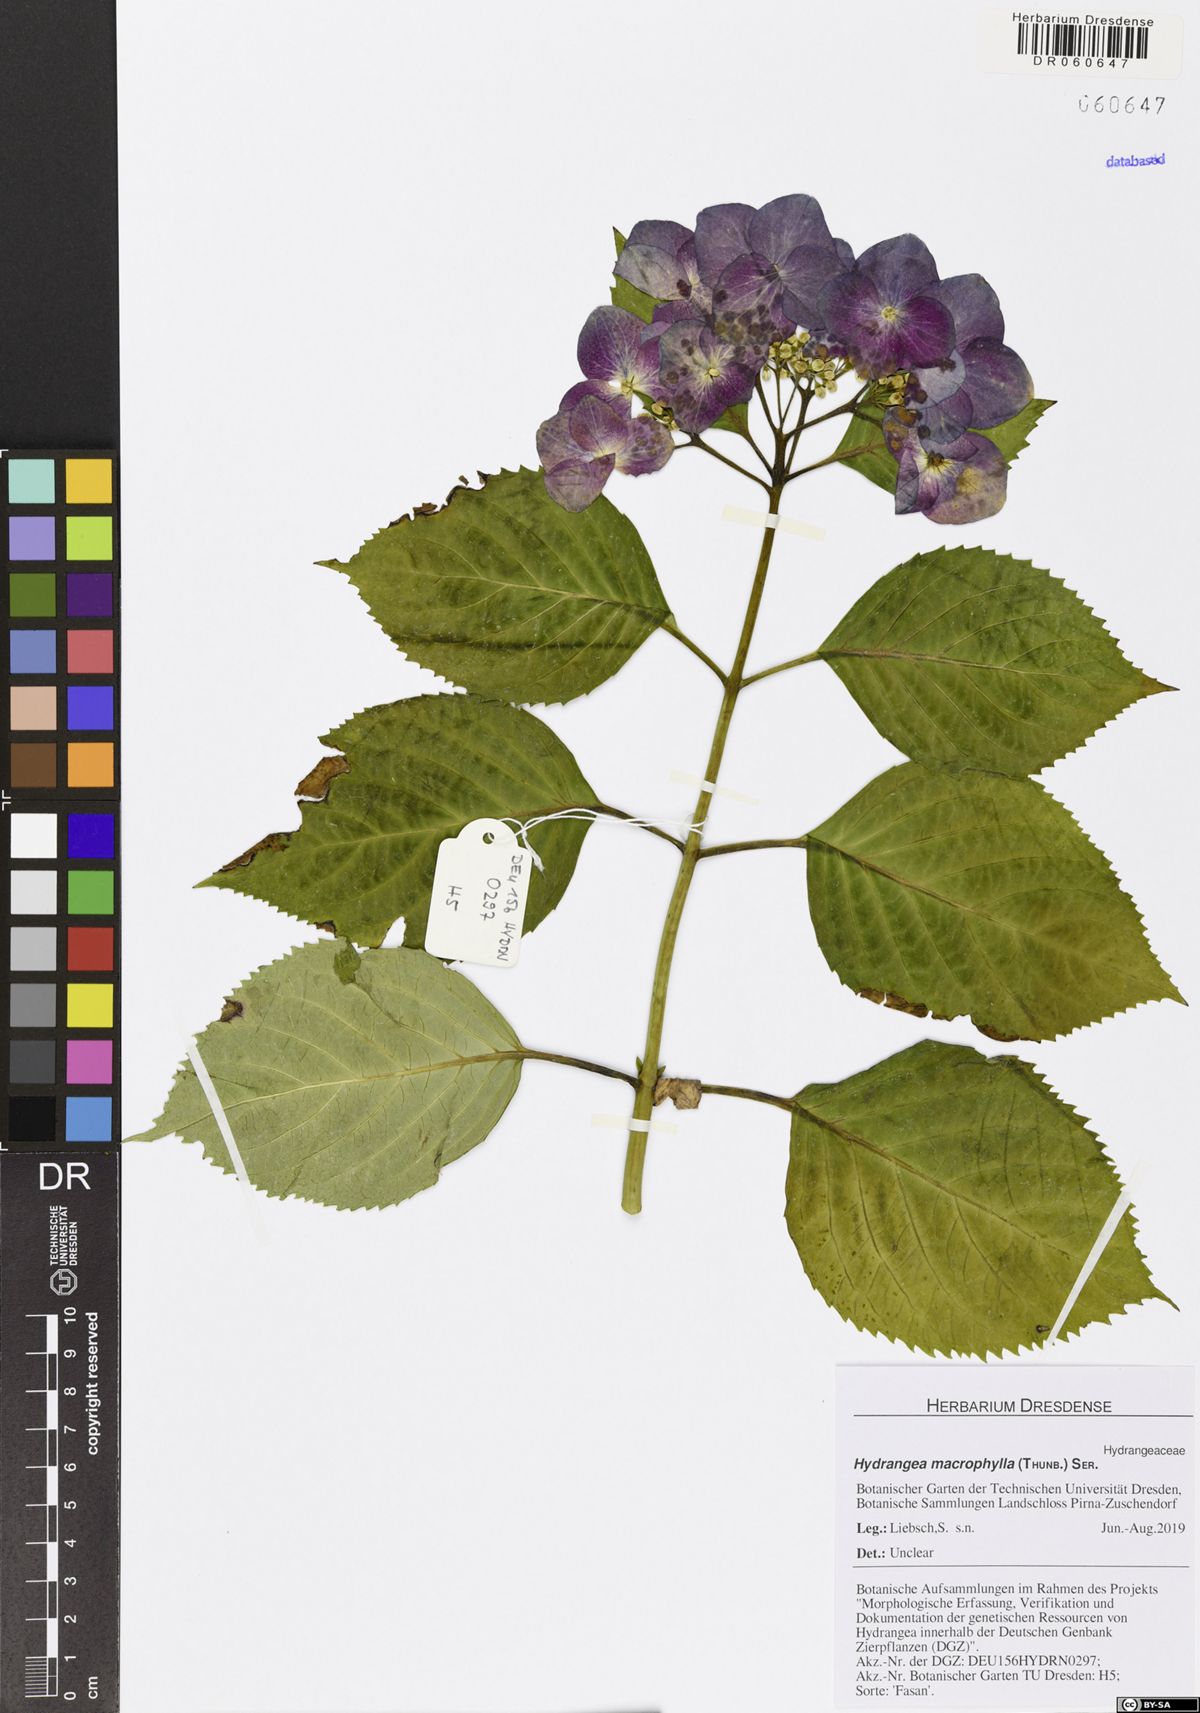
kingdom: Plantae
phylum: Tracheophyta
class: Magnoliopsida
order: Cornales
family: Hydrangeaceae
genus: Hydrangea
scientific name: Hydrangea macrophylla
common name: Hydrangea
